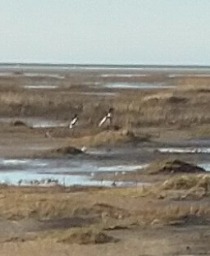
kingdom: Animalia
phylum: Chordata
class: Aves
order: Anseriformes
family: Anatidae
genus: Tadorna
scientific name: Tadorna tadorna
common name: Gravand
